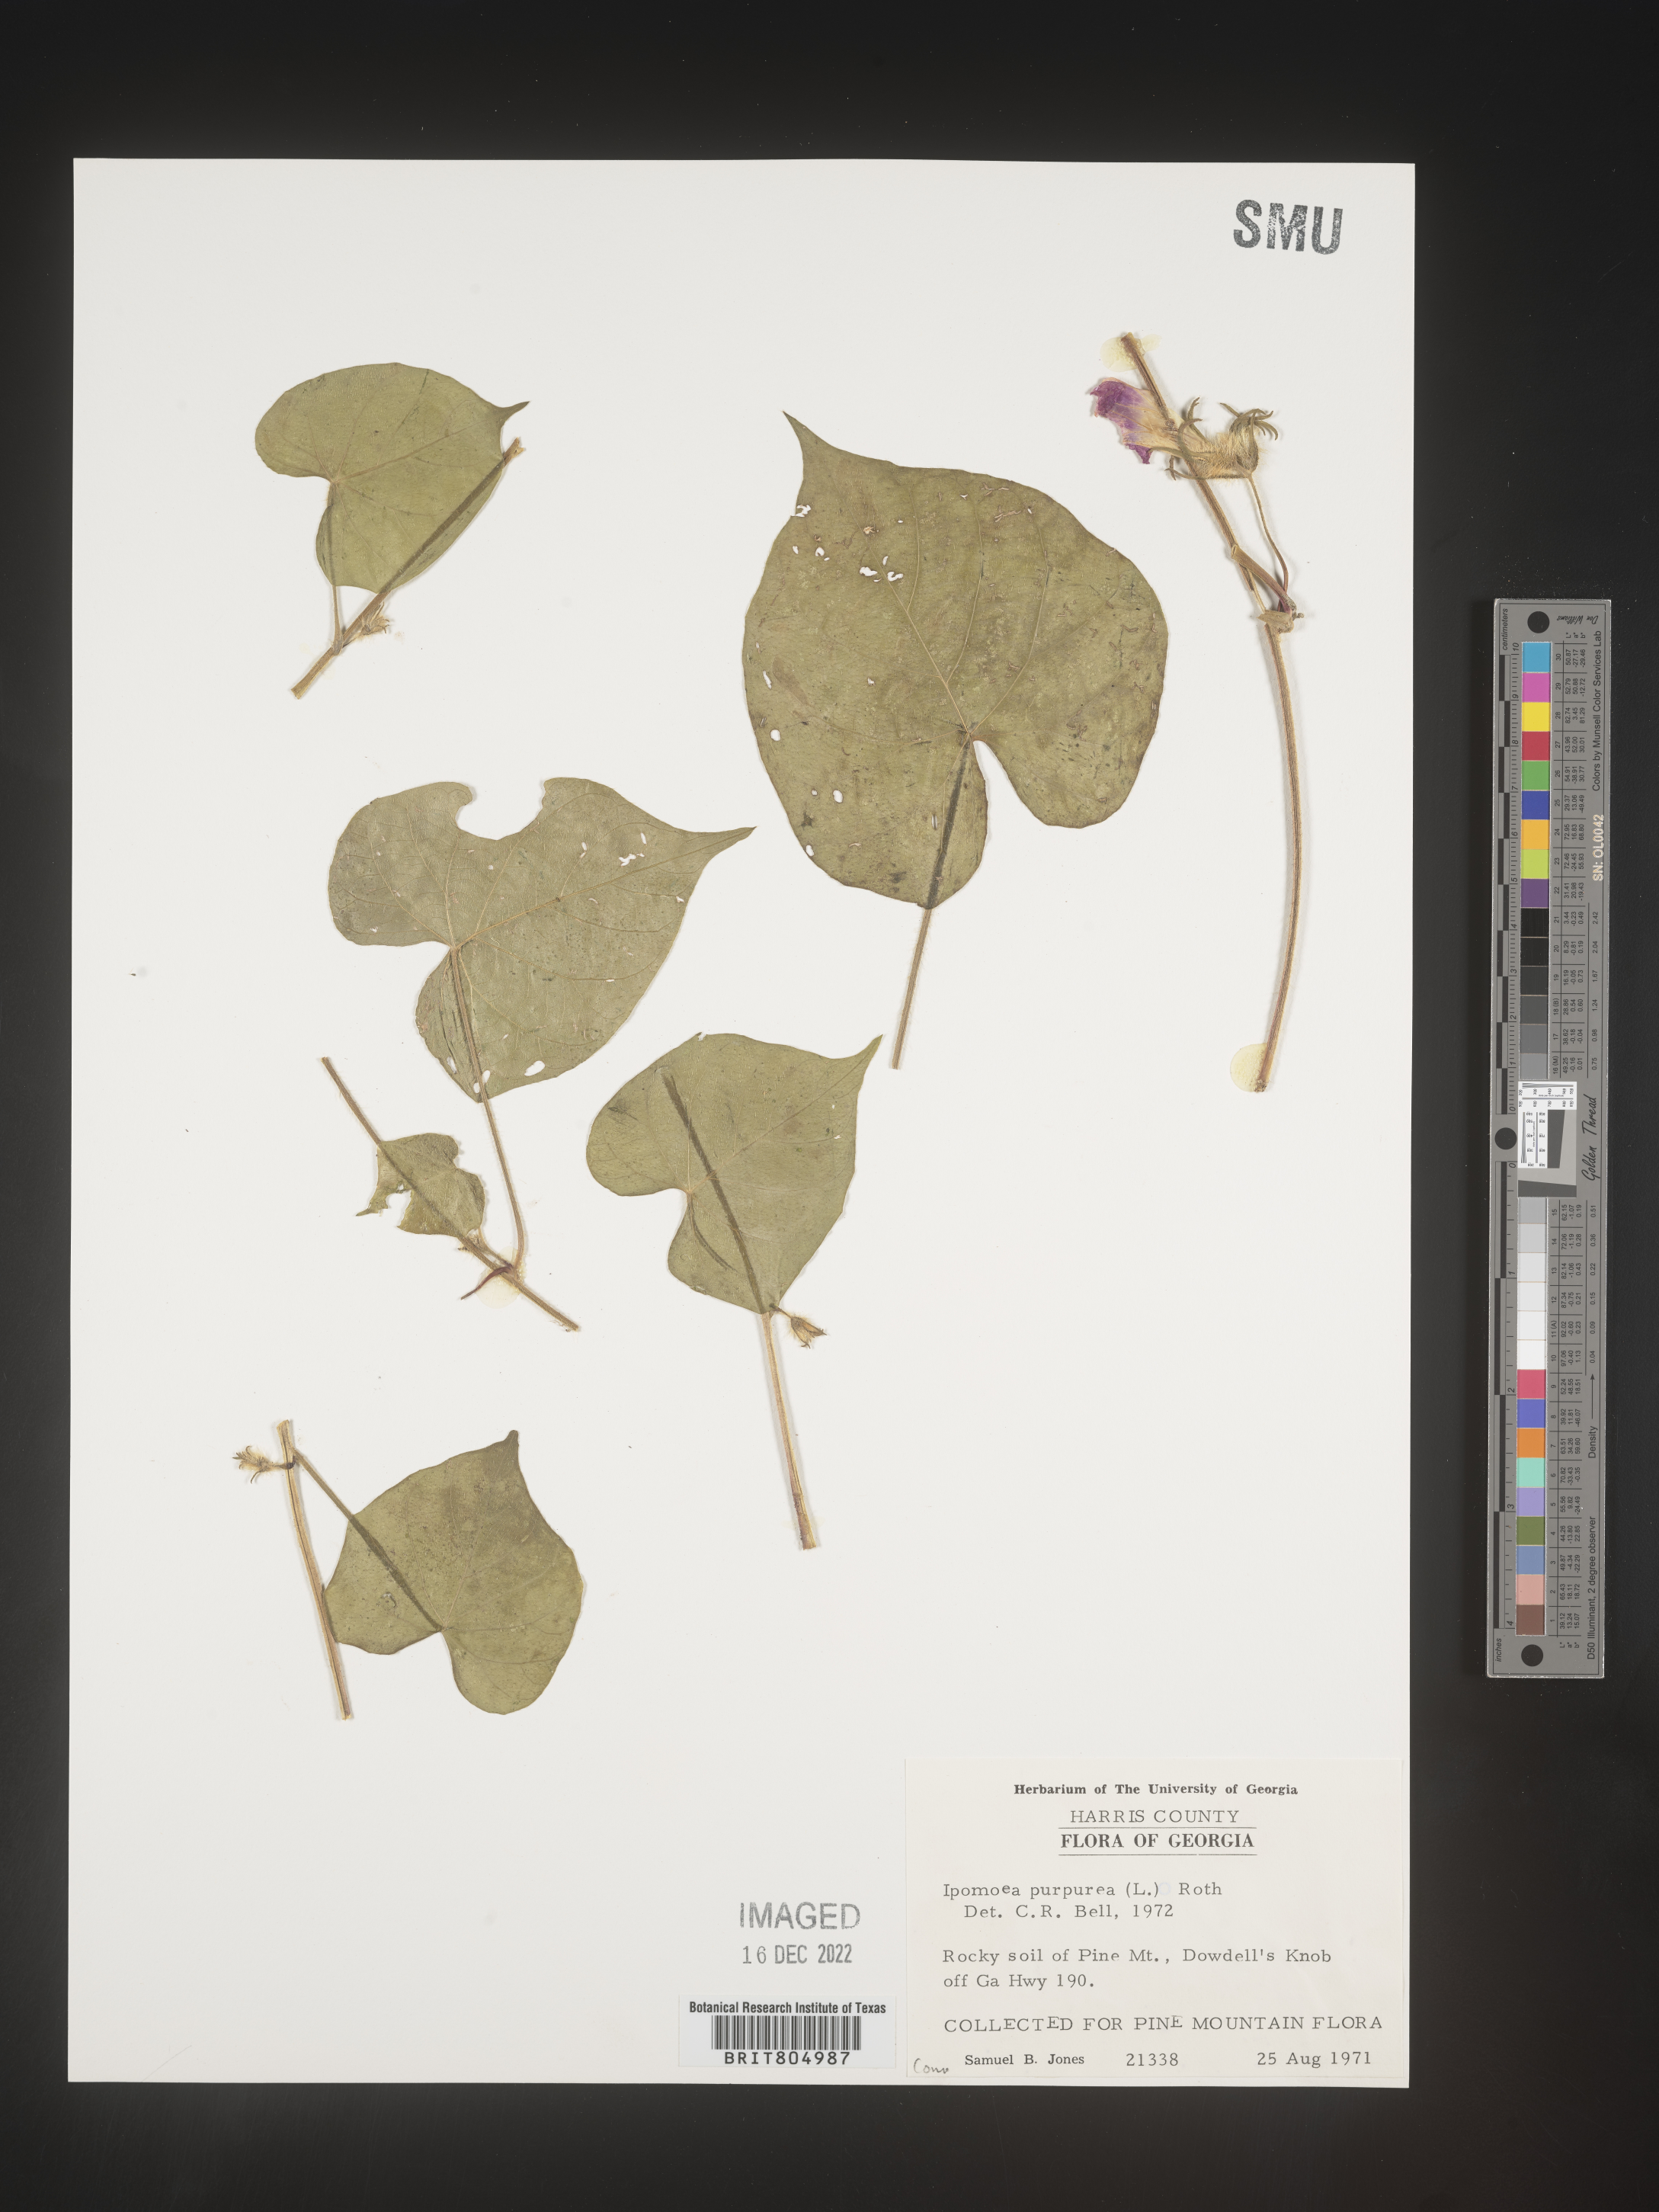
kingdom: Plantae
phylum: Tracheophyta
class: Magnoliopsida
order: Solanales
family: Convolvulaceae
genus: Ipomoea
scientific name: Ipomoea purpurea
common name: Common morning-glory
